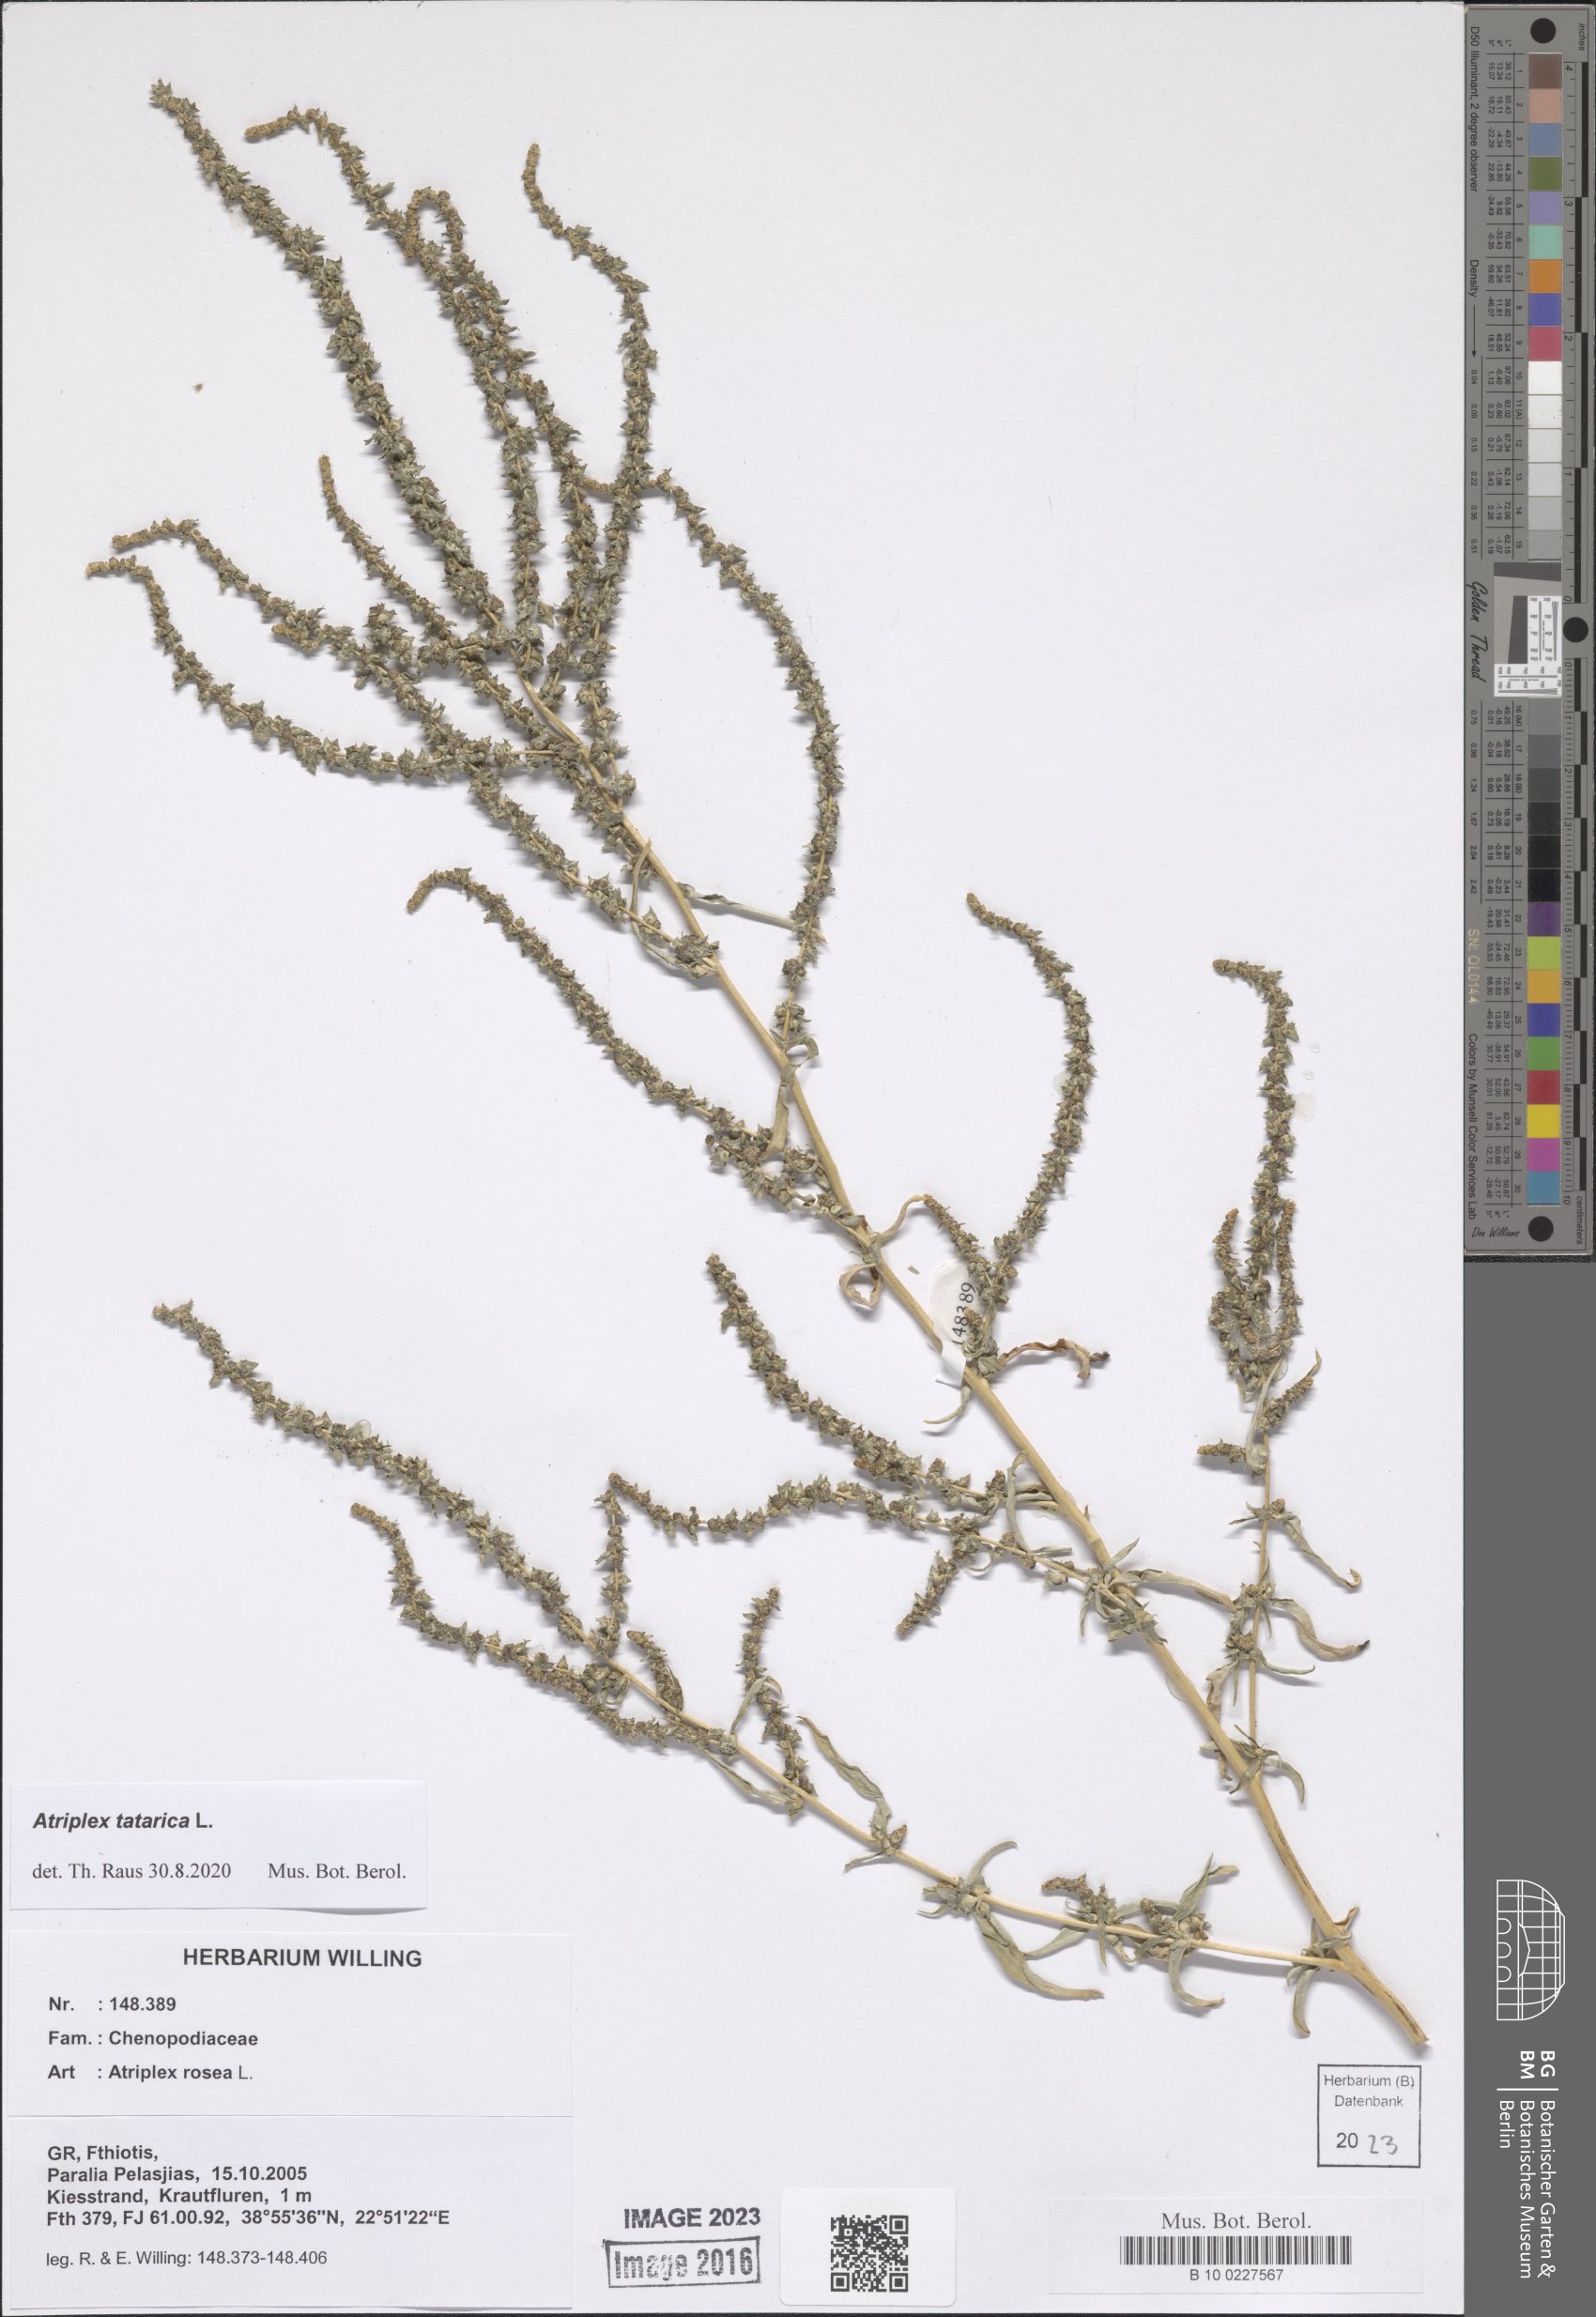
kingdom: Plantae
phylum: Tracheophyta
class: Magnoliopsida
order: Caryophyllales
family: Amaranthaceae
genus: Atriplex
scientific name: Atriplex tatarica
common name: Tatarian orache
